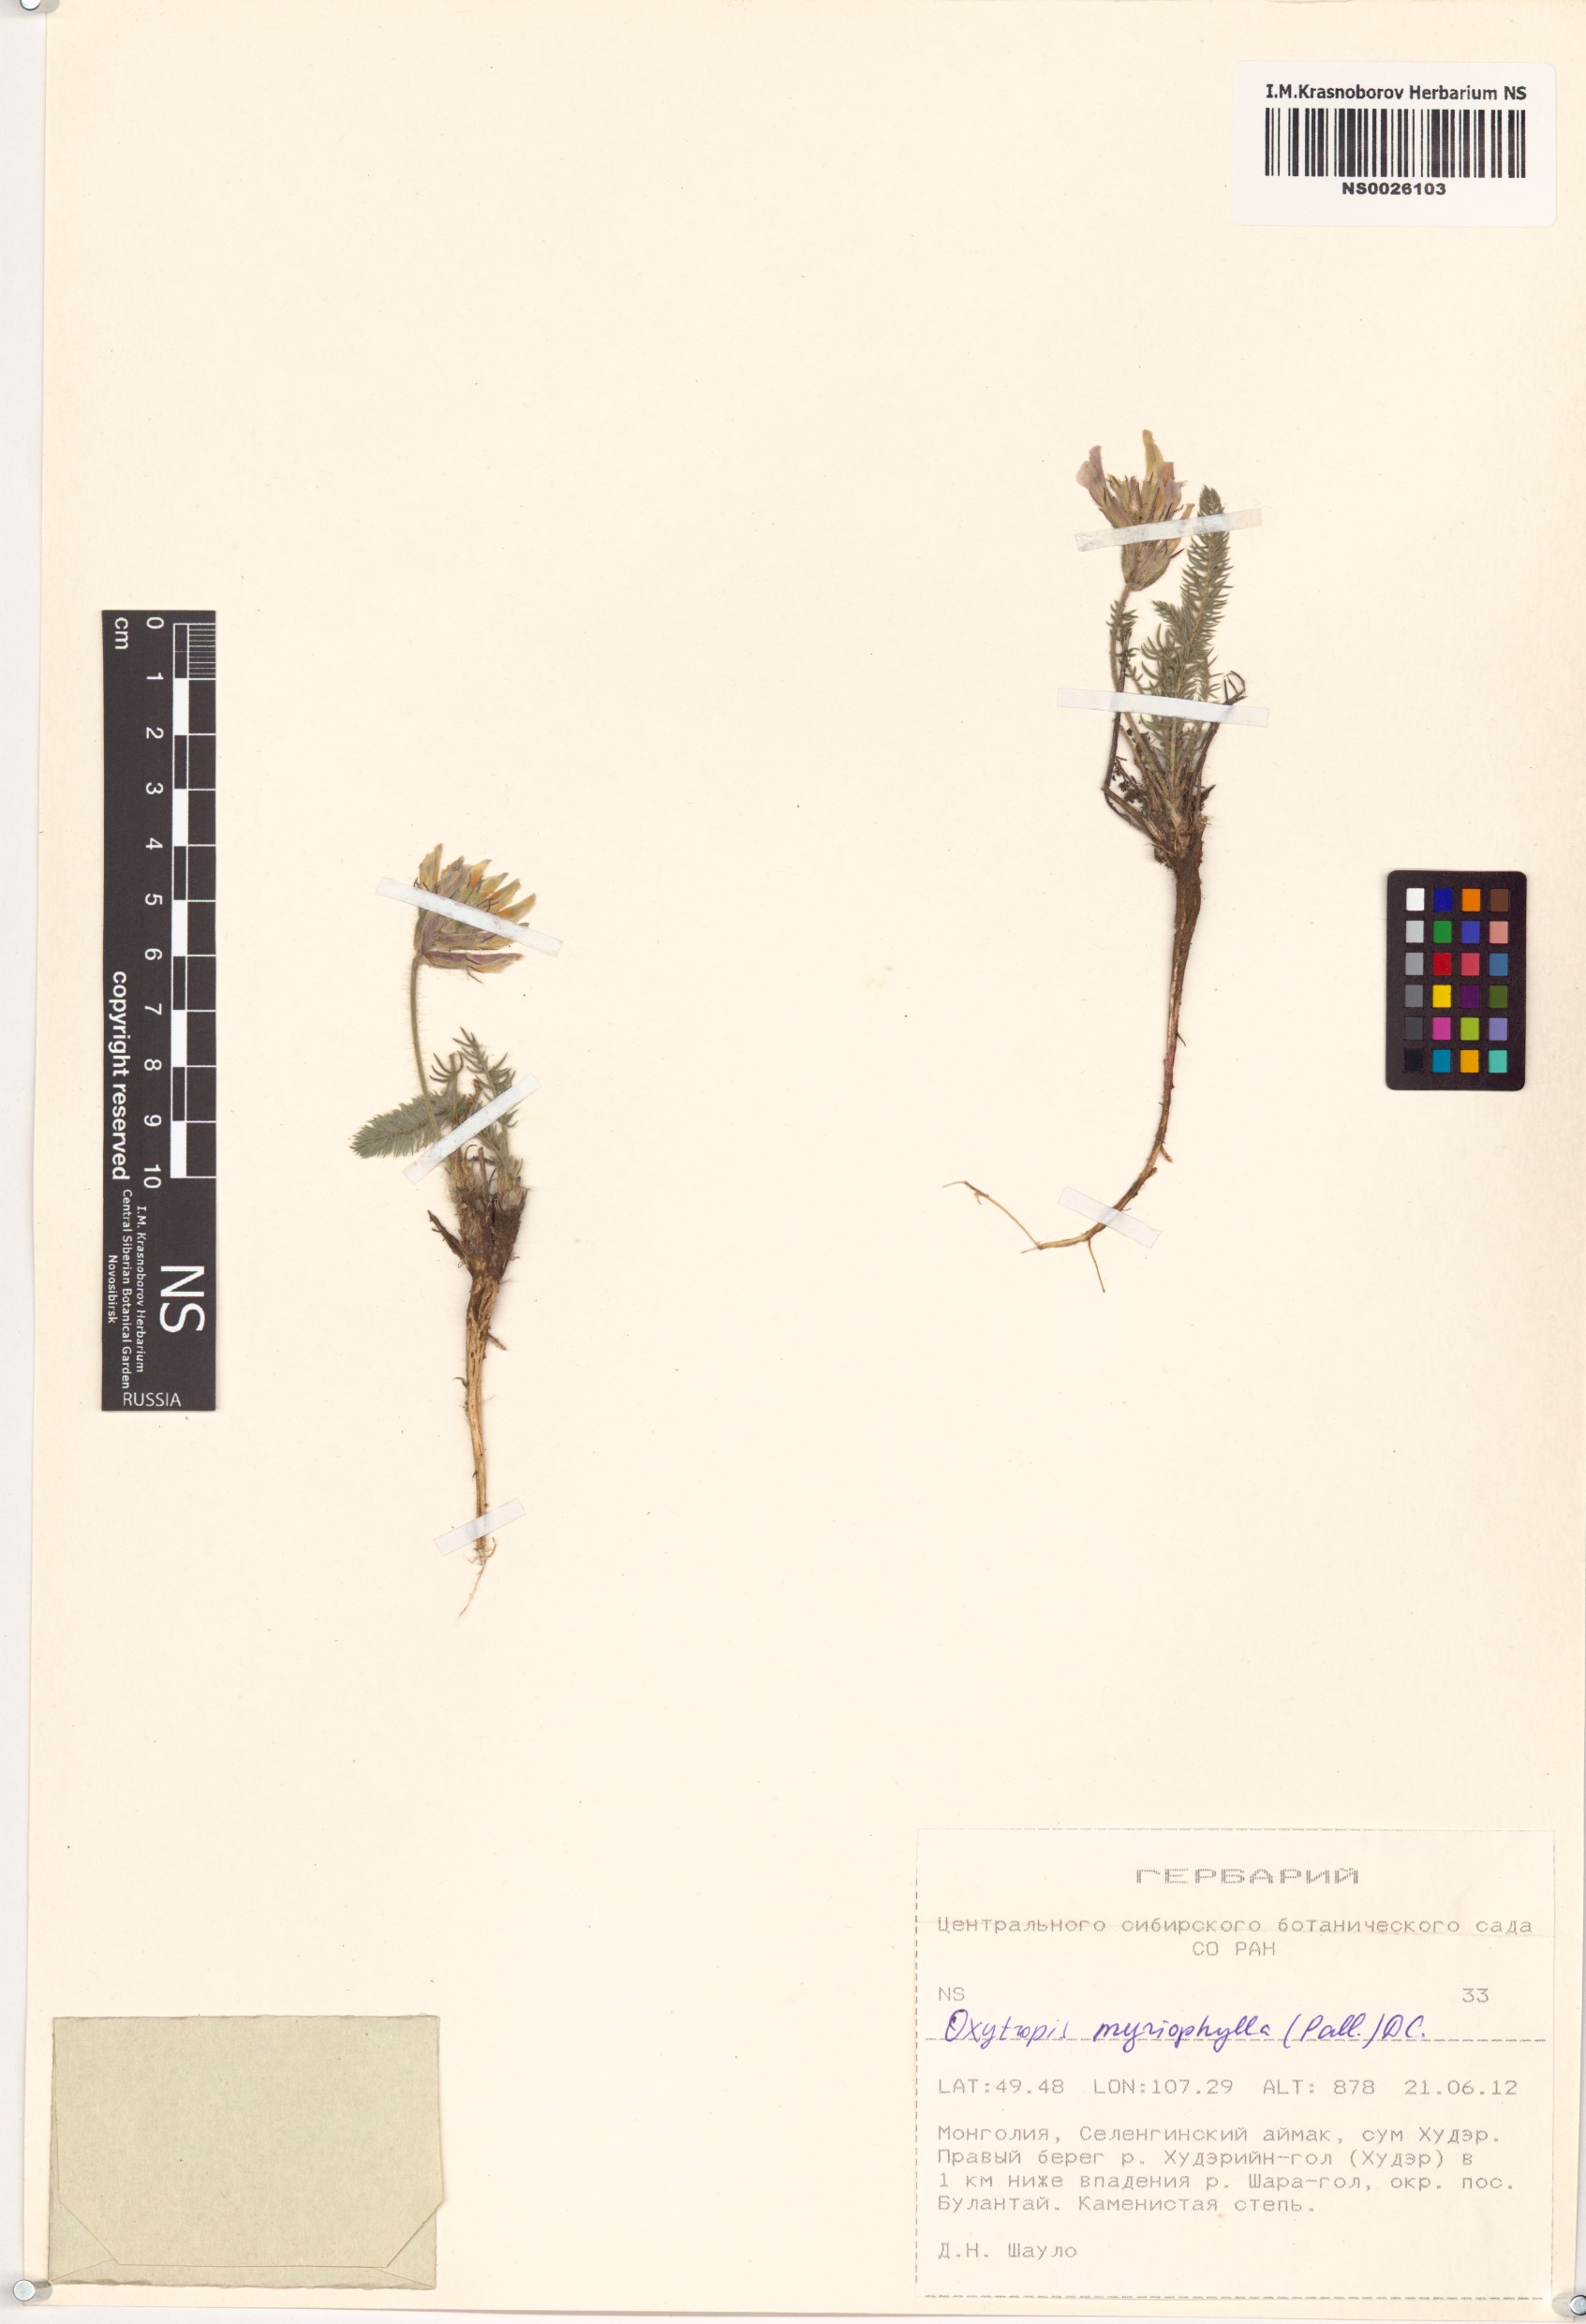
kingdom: Plantae
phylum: Tracheophyta
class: Magnoliopsida
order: Fabales
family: Fabaceae
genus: Oxytropis
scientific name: Oxytropis myriophylla
